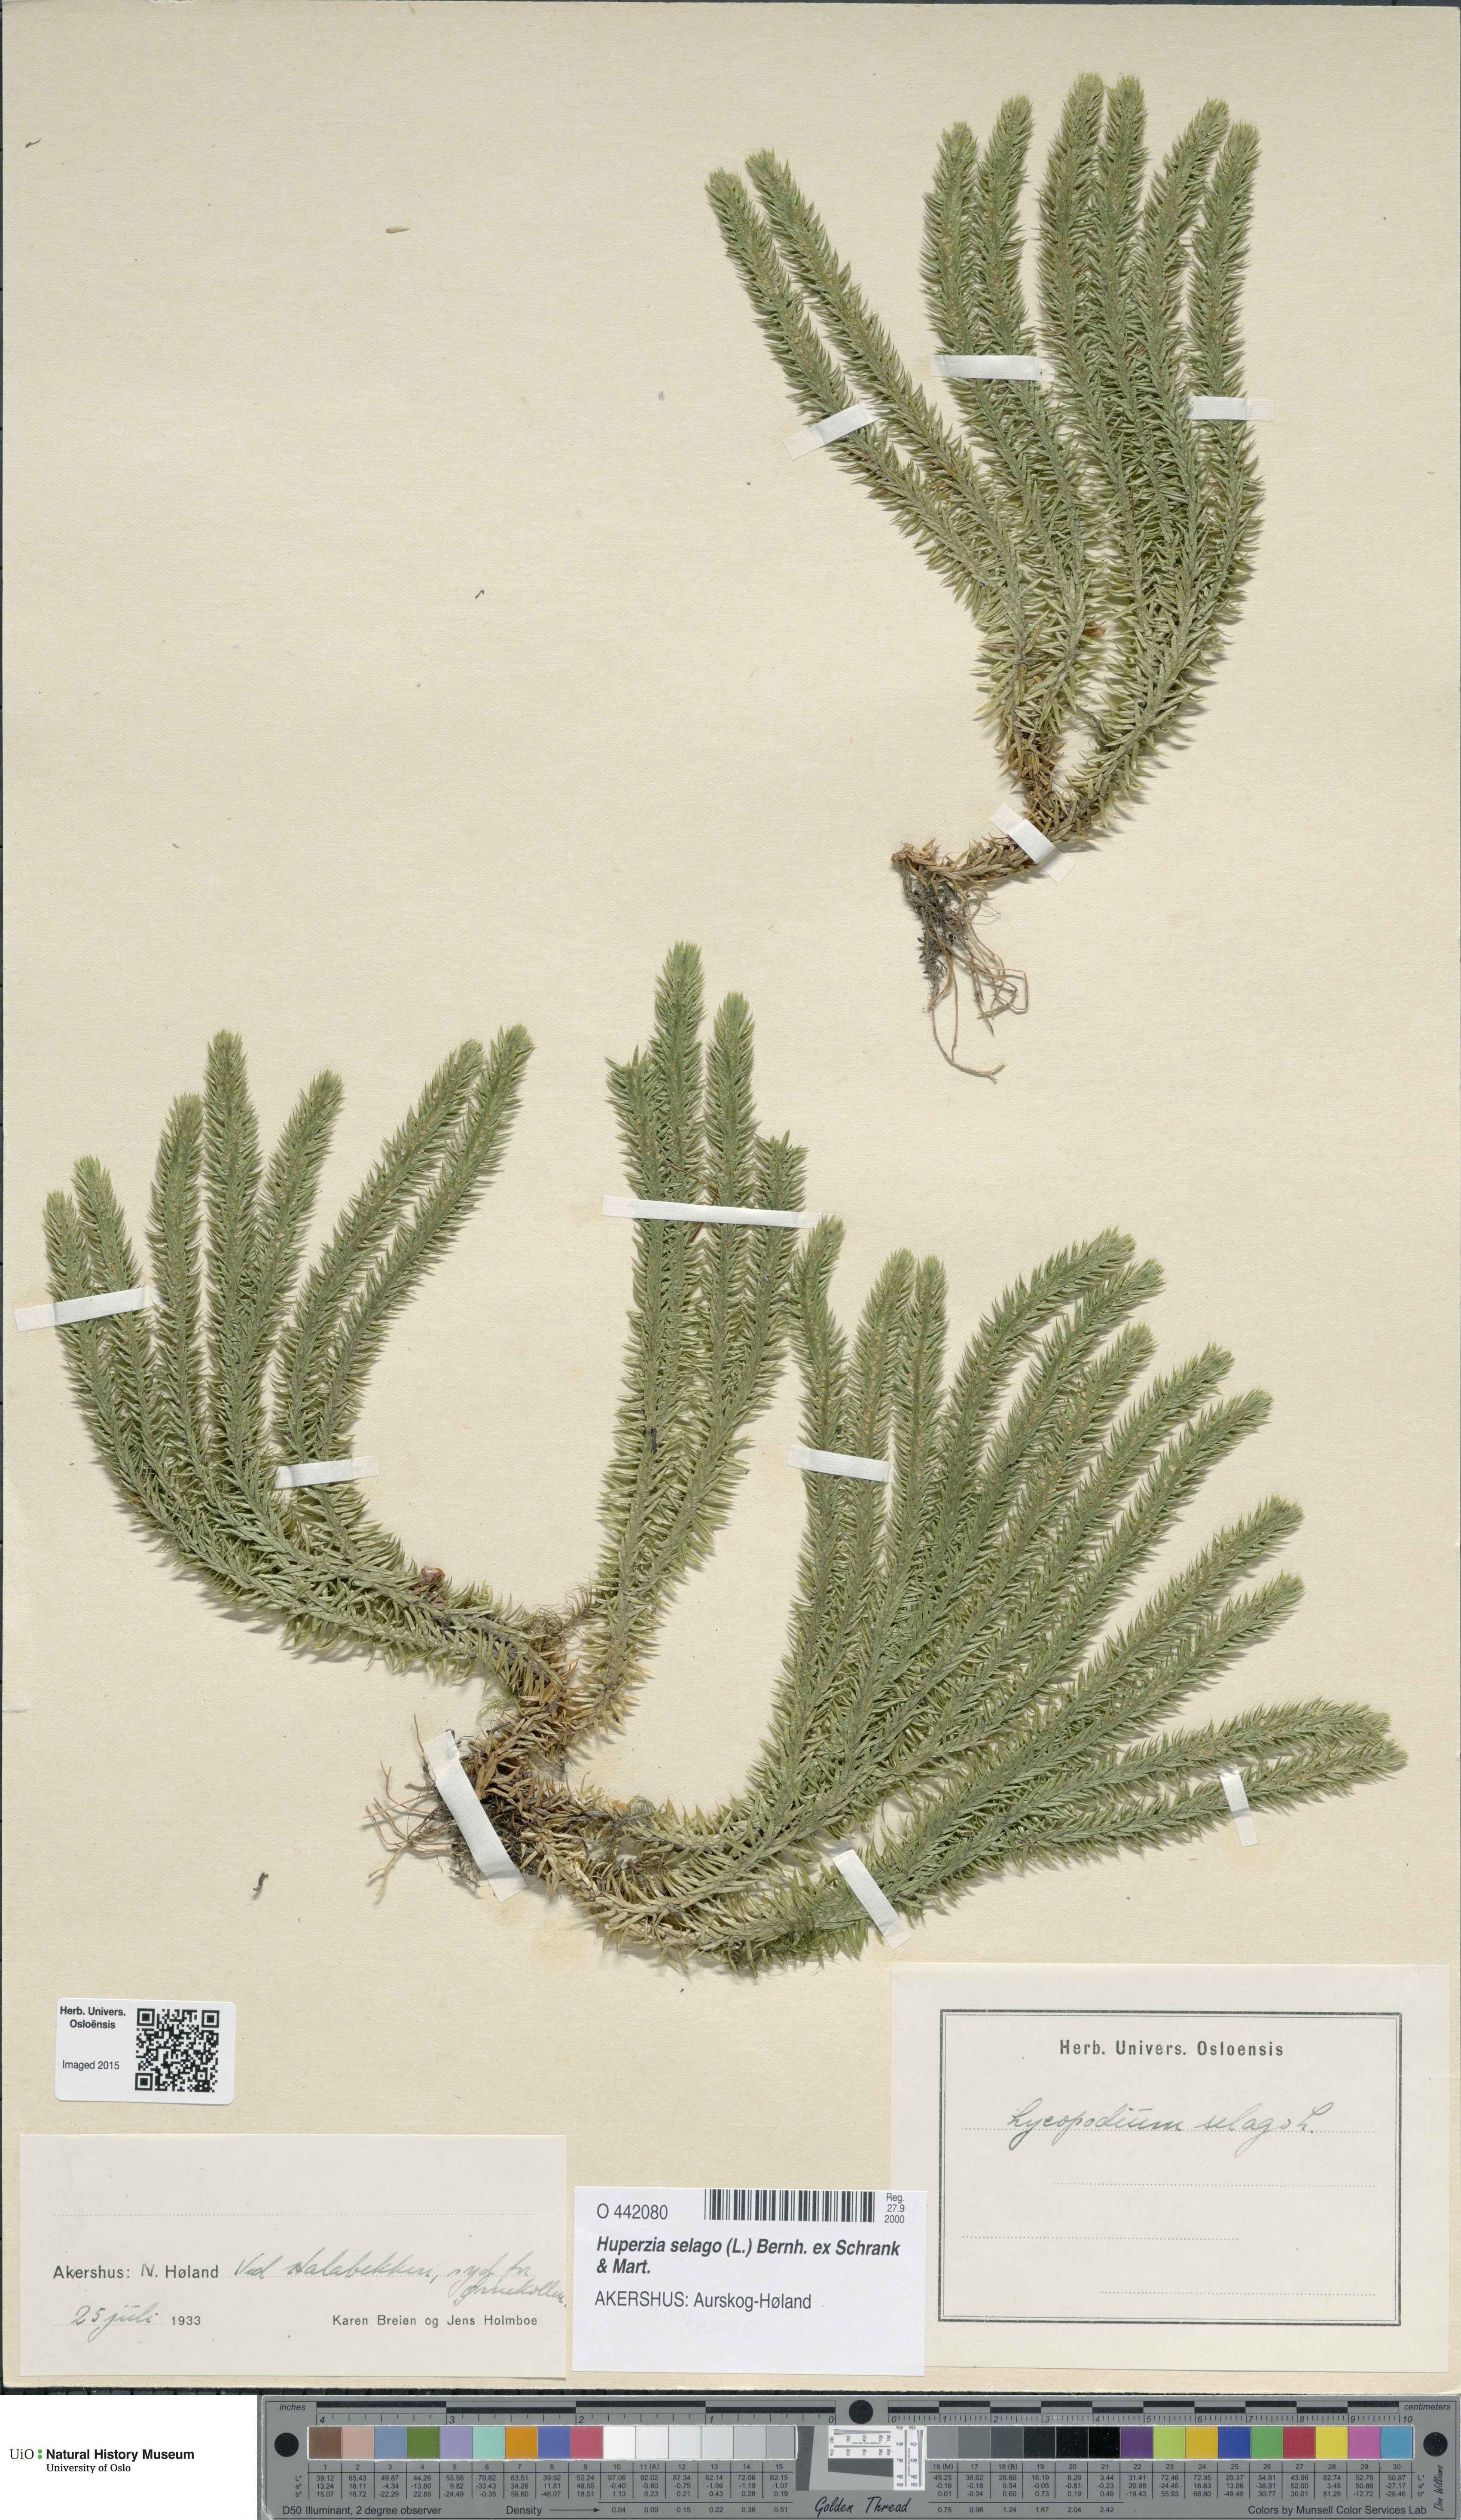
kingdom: Plantae
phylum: Tracheophyta
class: Lycopodiopsida
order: Lycopodiales
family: Lycopodiaceae
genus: Huperzia
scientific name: Huperzia selago
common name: Northern firmoss
